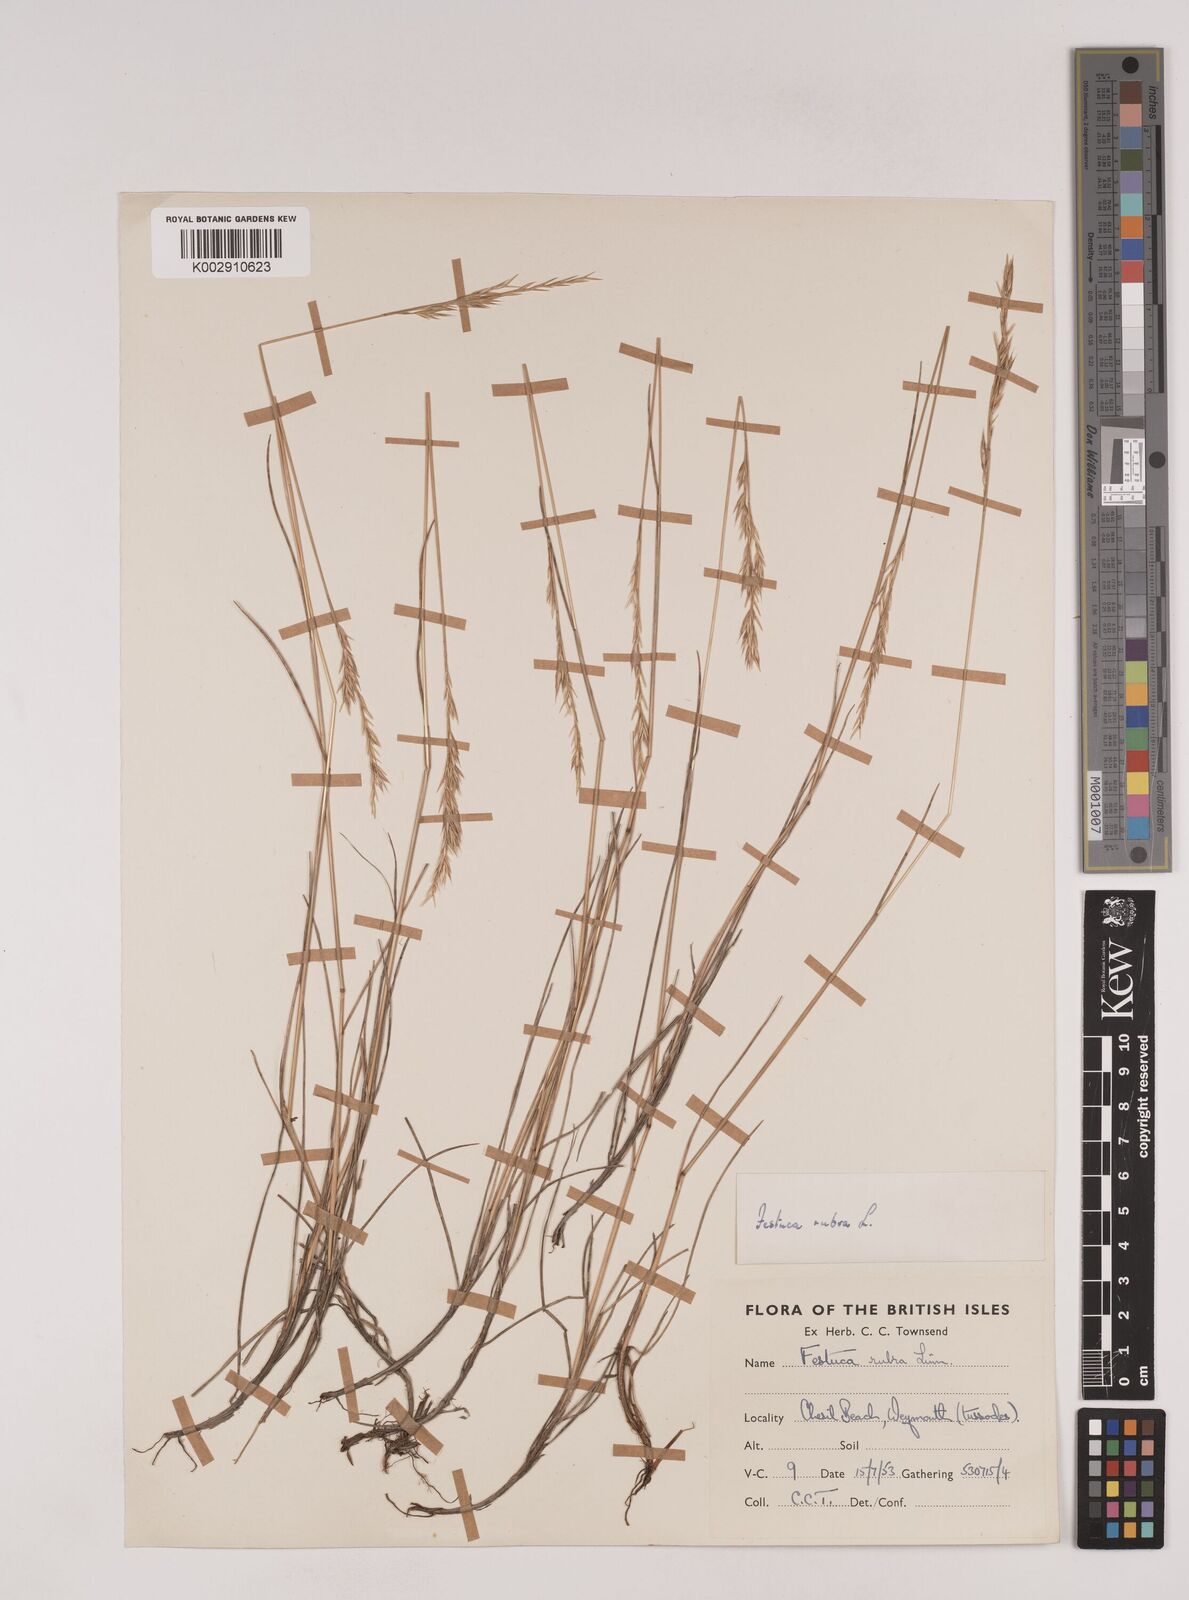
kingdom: Plantae
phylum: Tracheophyta
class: Liliopsida
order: Poales
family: Poaceae
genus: Festuca
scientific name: Festuca rubra
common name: Red fescue
